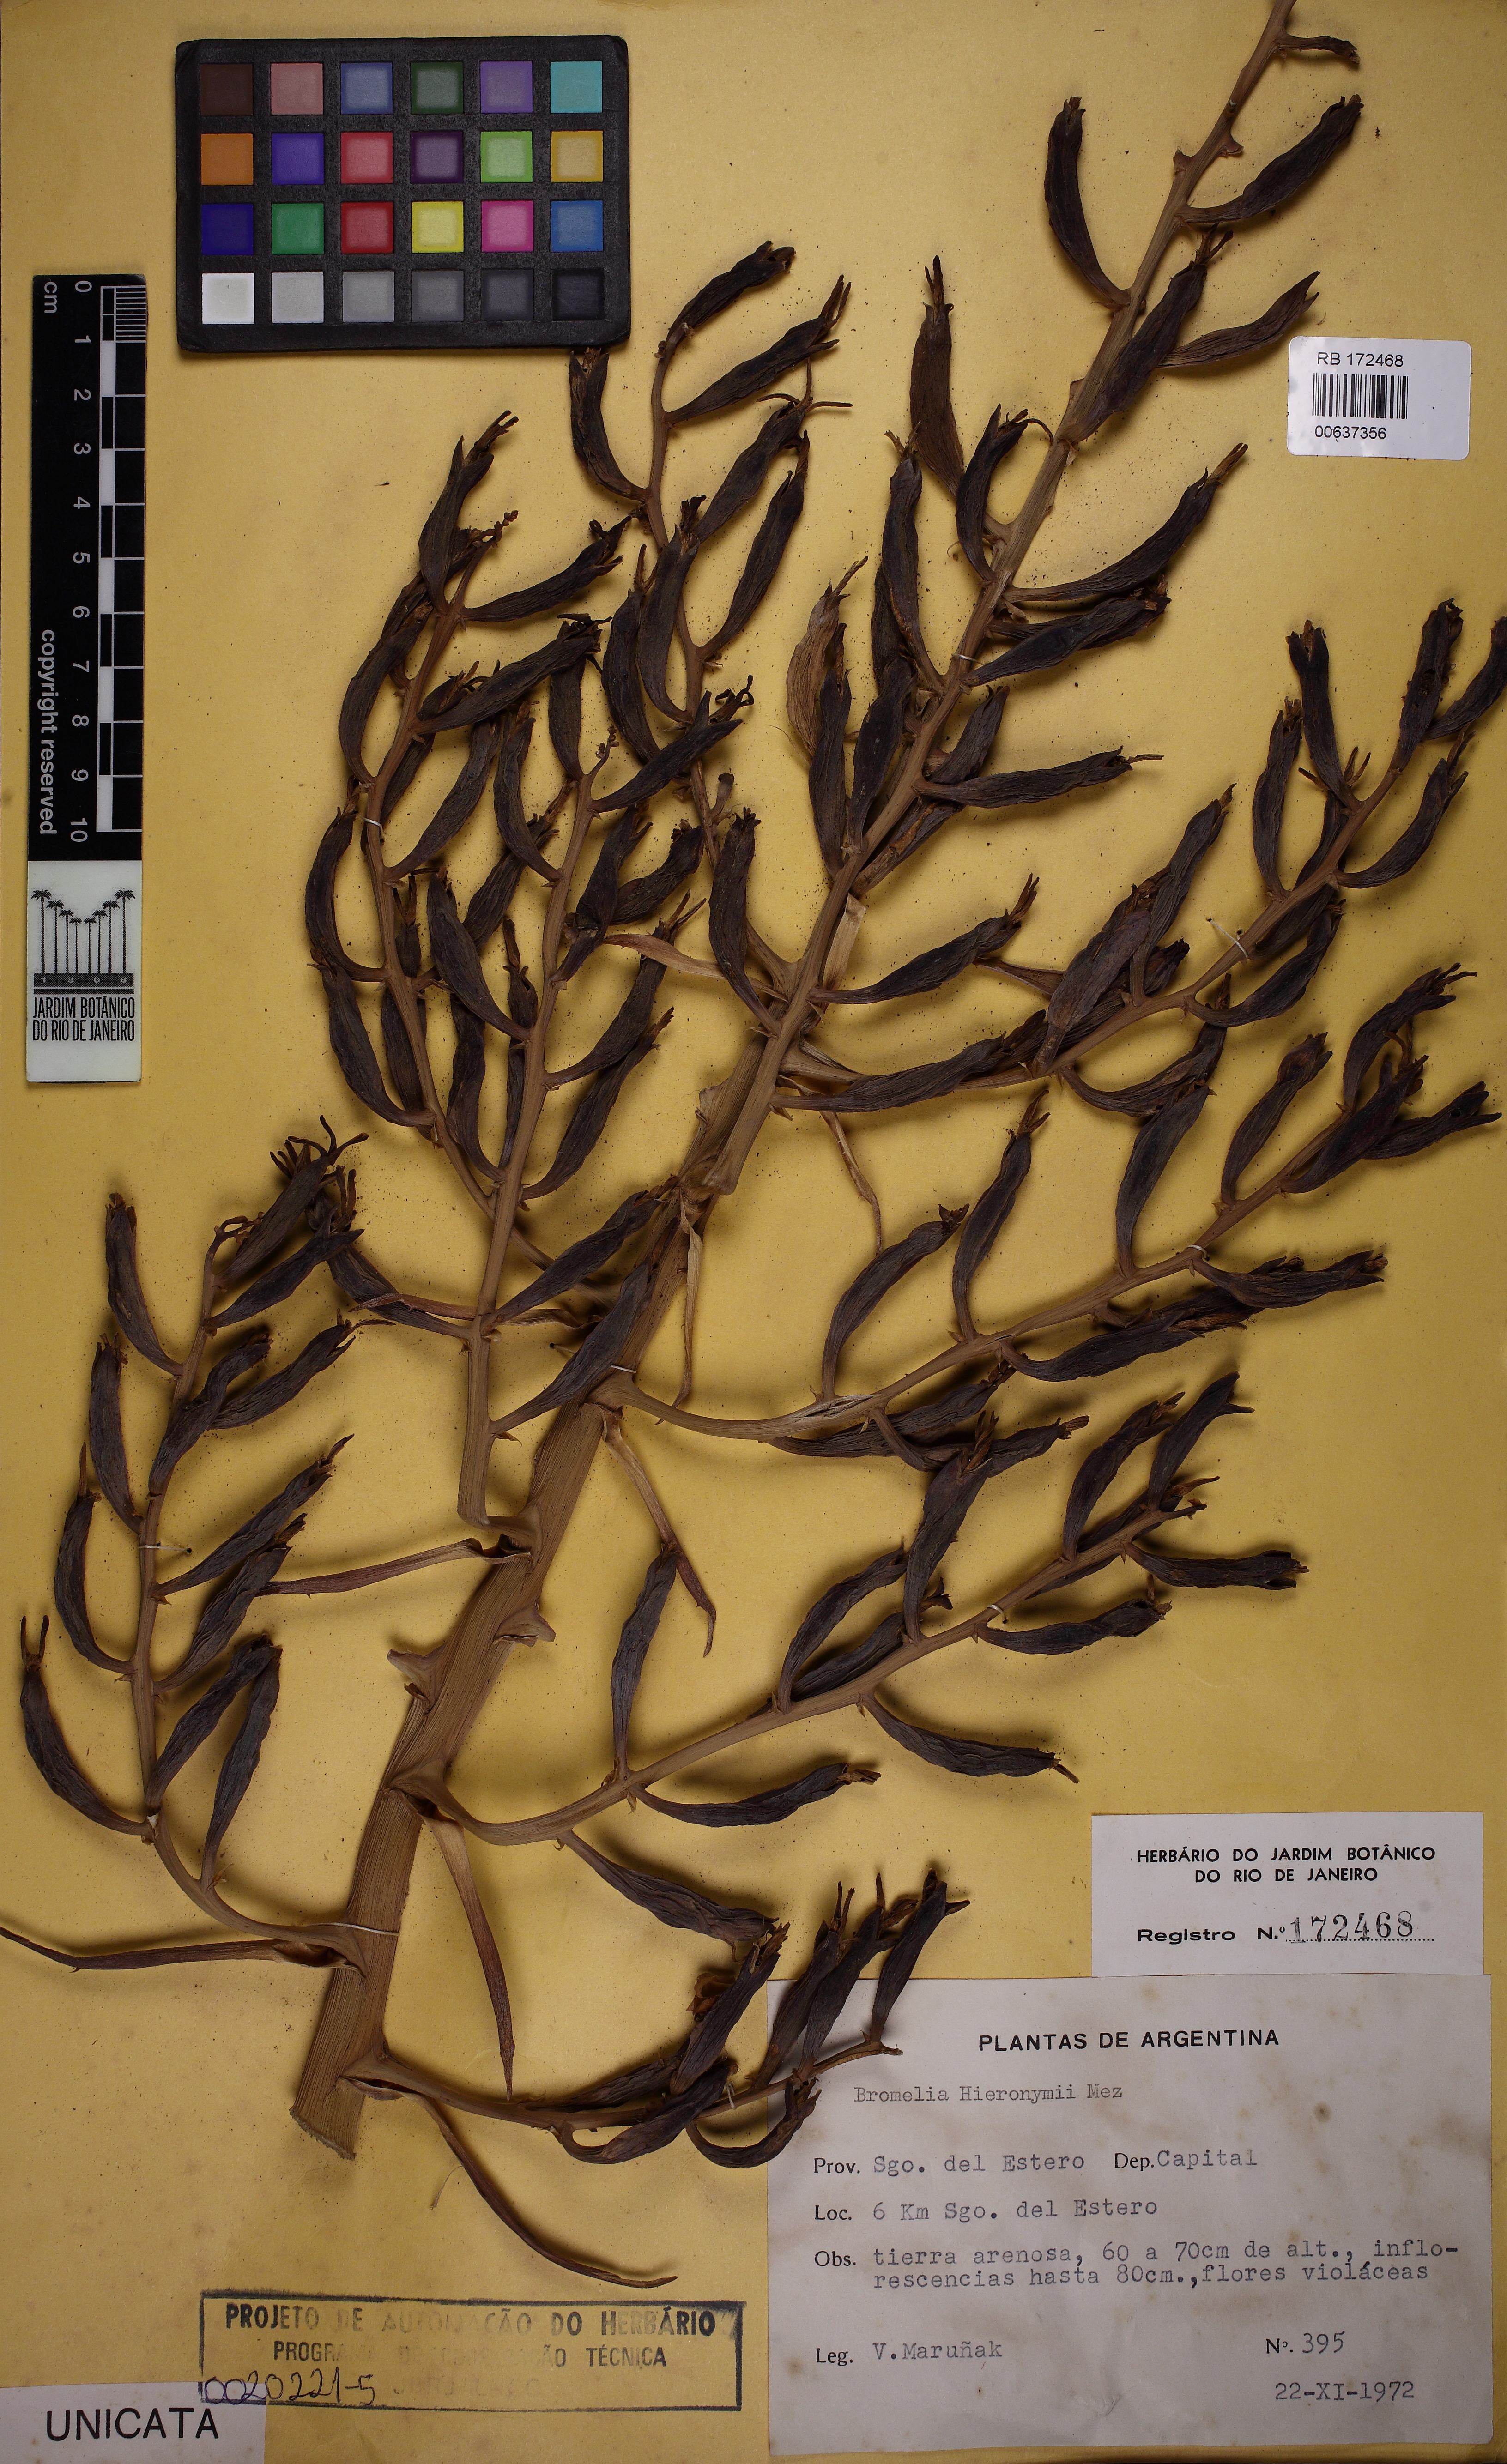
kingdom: Plantae
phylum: Tracheophyta
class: Liliopsida
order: Poales
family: Bromeliaceae
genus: Bromelia
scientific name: Bromelia hieronymi
